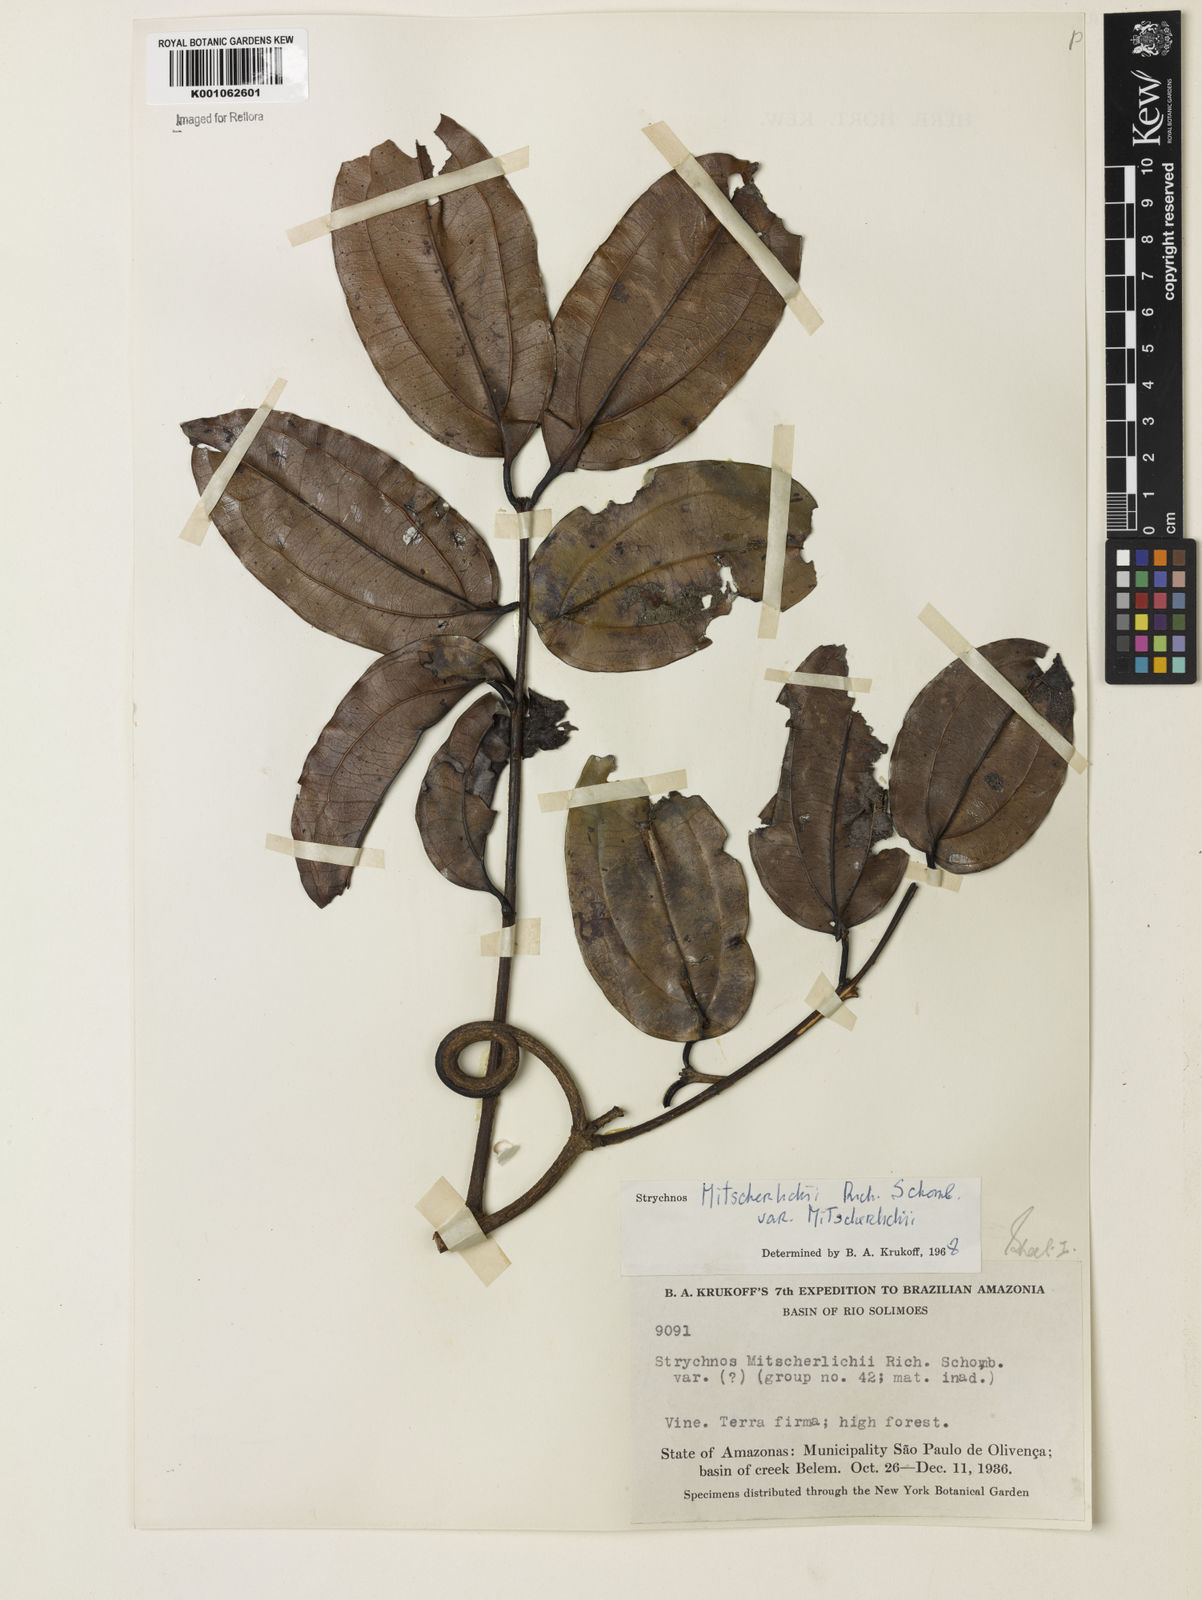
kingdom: Plantae
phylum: Tracheophyta
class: Magnoliopsida
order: Gentianales
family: Loganiaceae
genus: Strychnos
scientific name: Strychnos mitscherlichii
